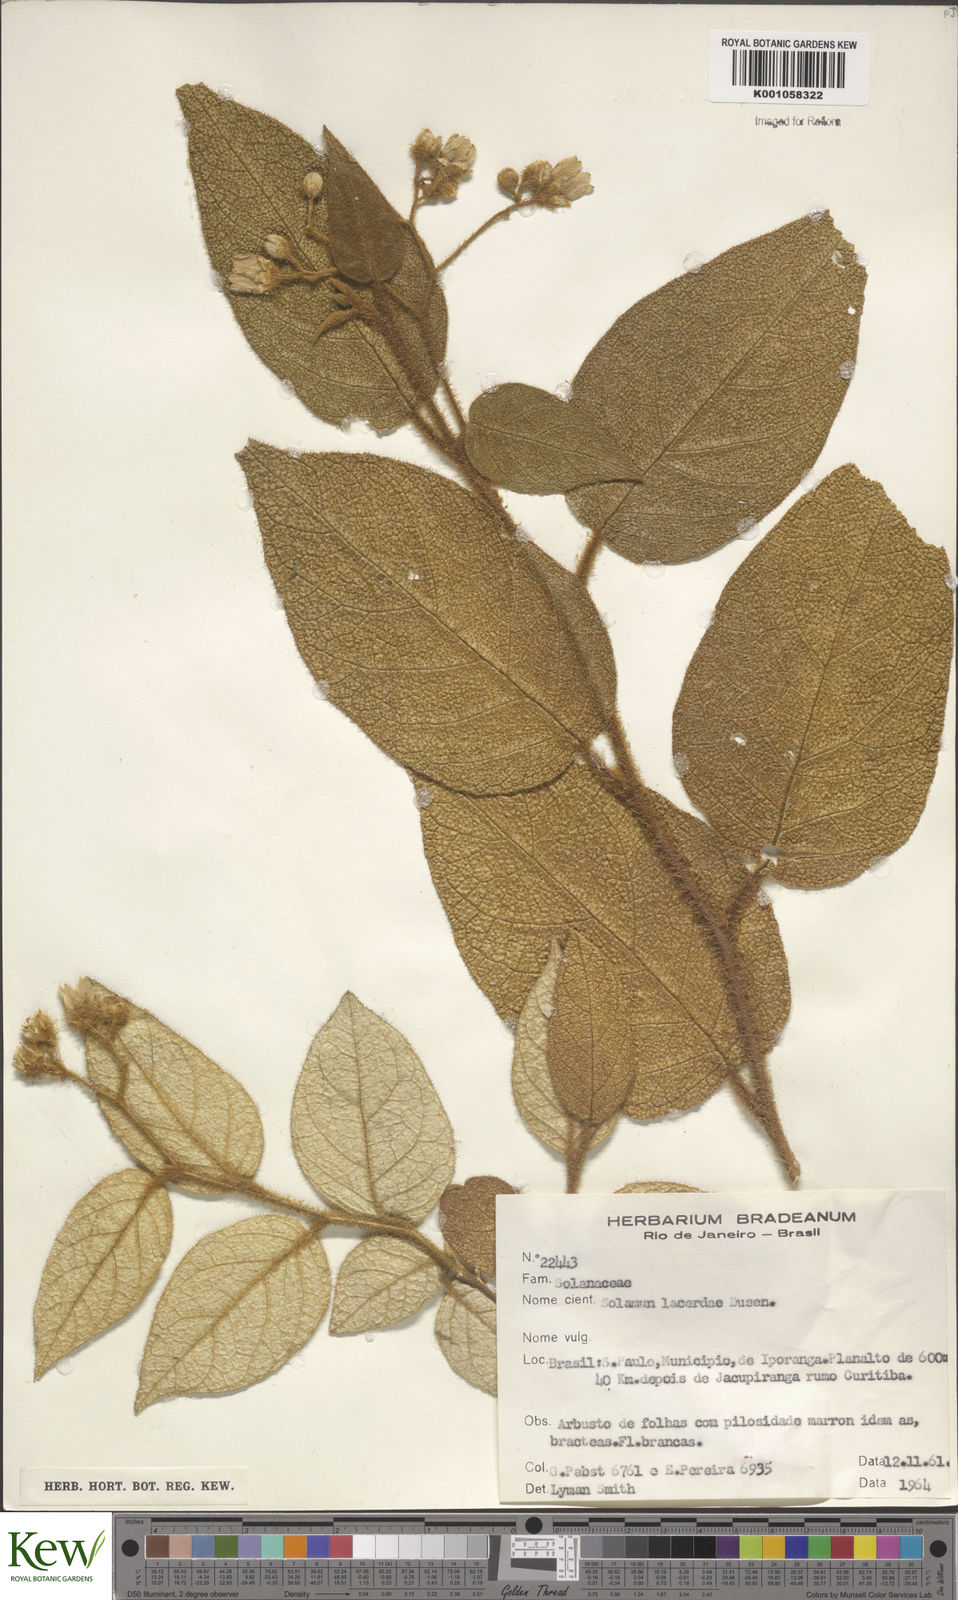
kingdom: Plantae
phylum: Tracheophyta
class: Magnoliopsida
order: Solanales
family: Solanaceae
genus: Solanum
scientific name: Solanum
